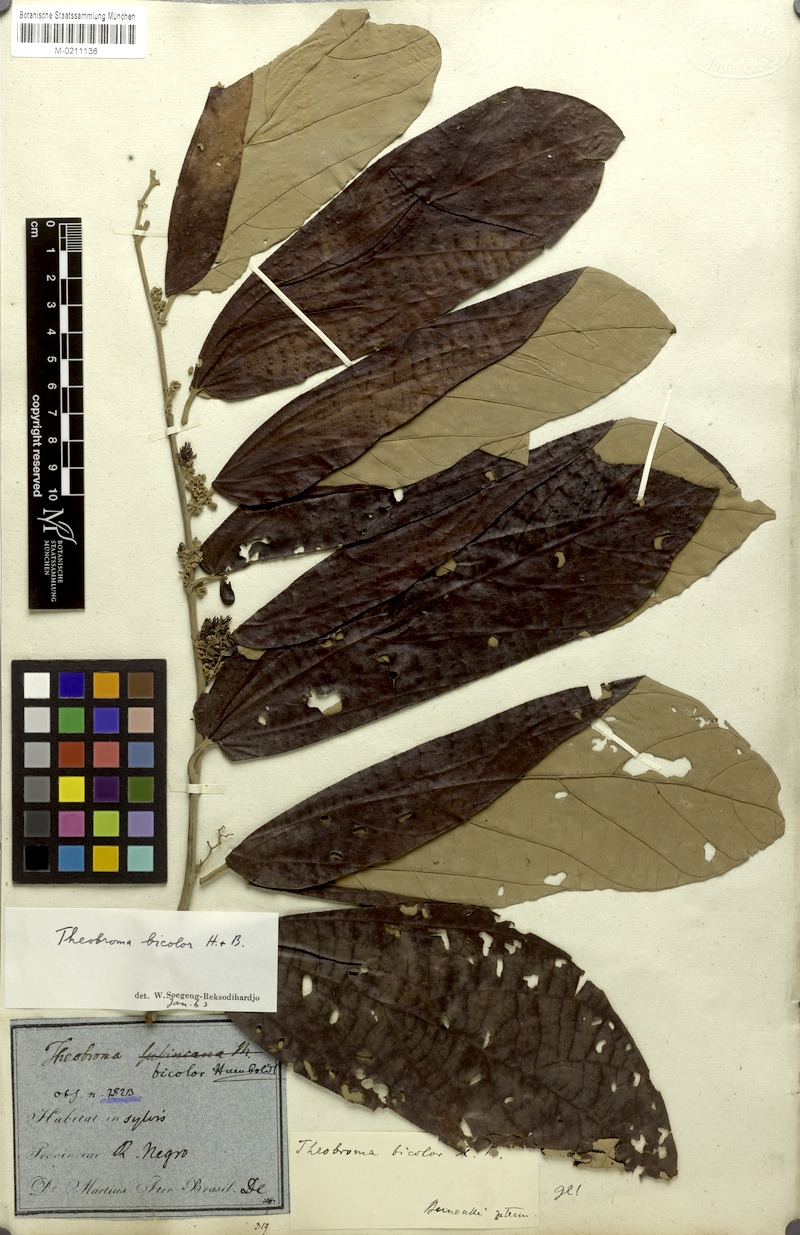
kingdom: Plantae
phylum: Tracheophyta
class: Magnoliopsida
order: Malvales
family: Malvaceae
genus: Theobroma
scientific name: Theobroma bicolor
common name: Macambo tree
